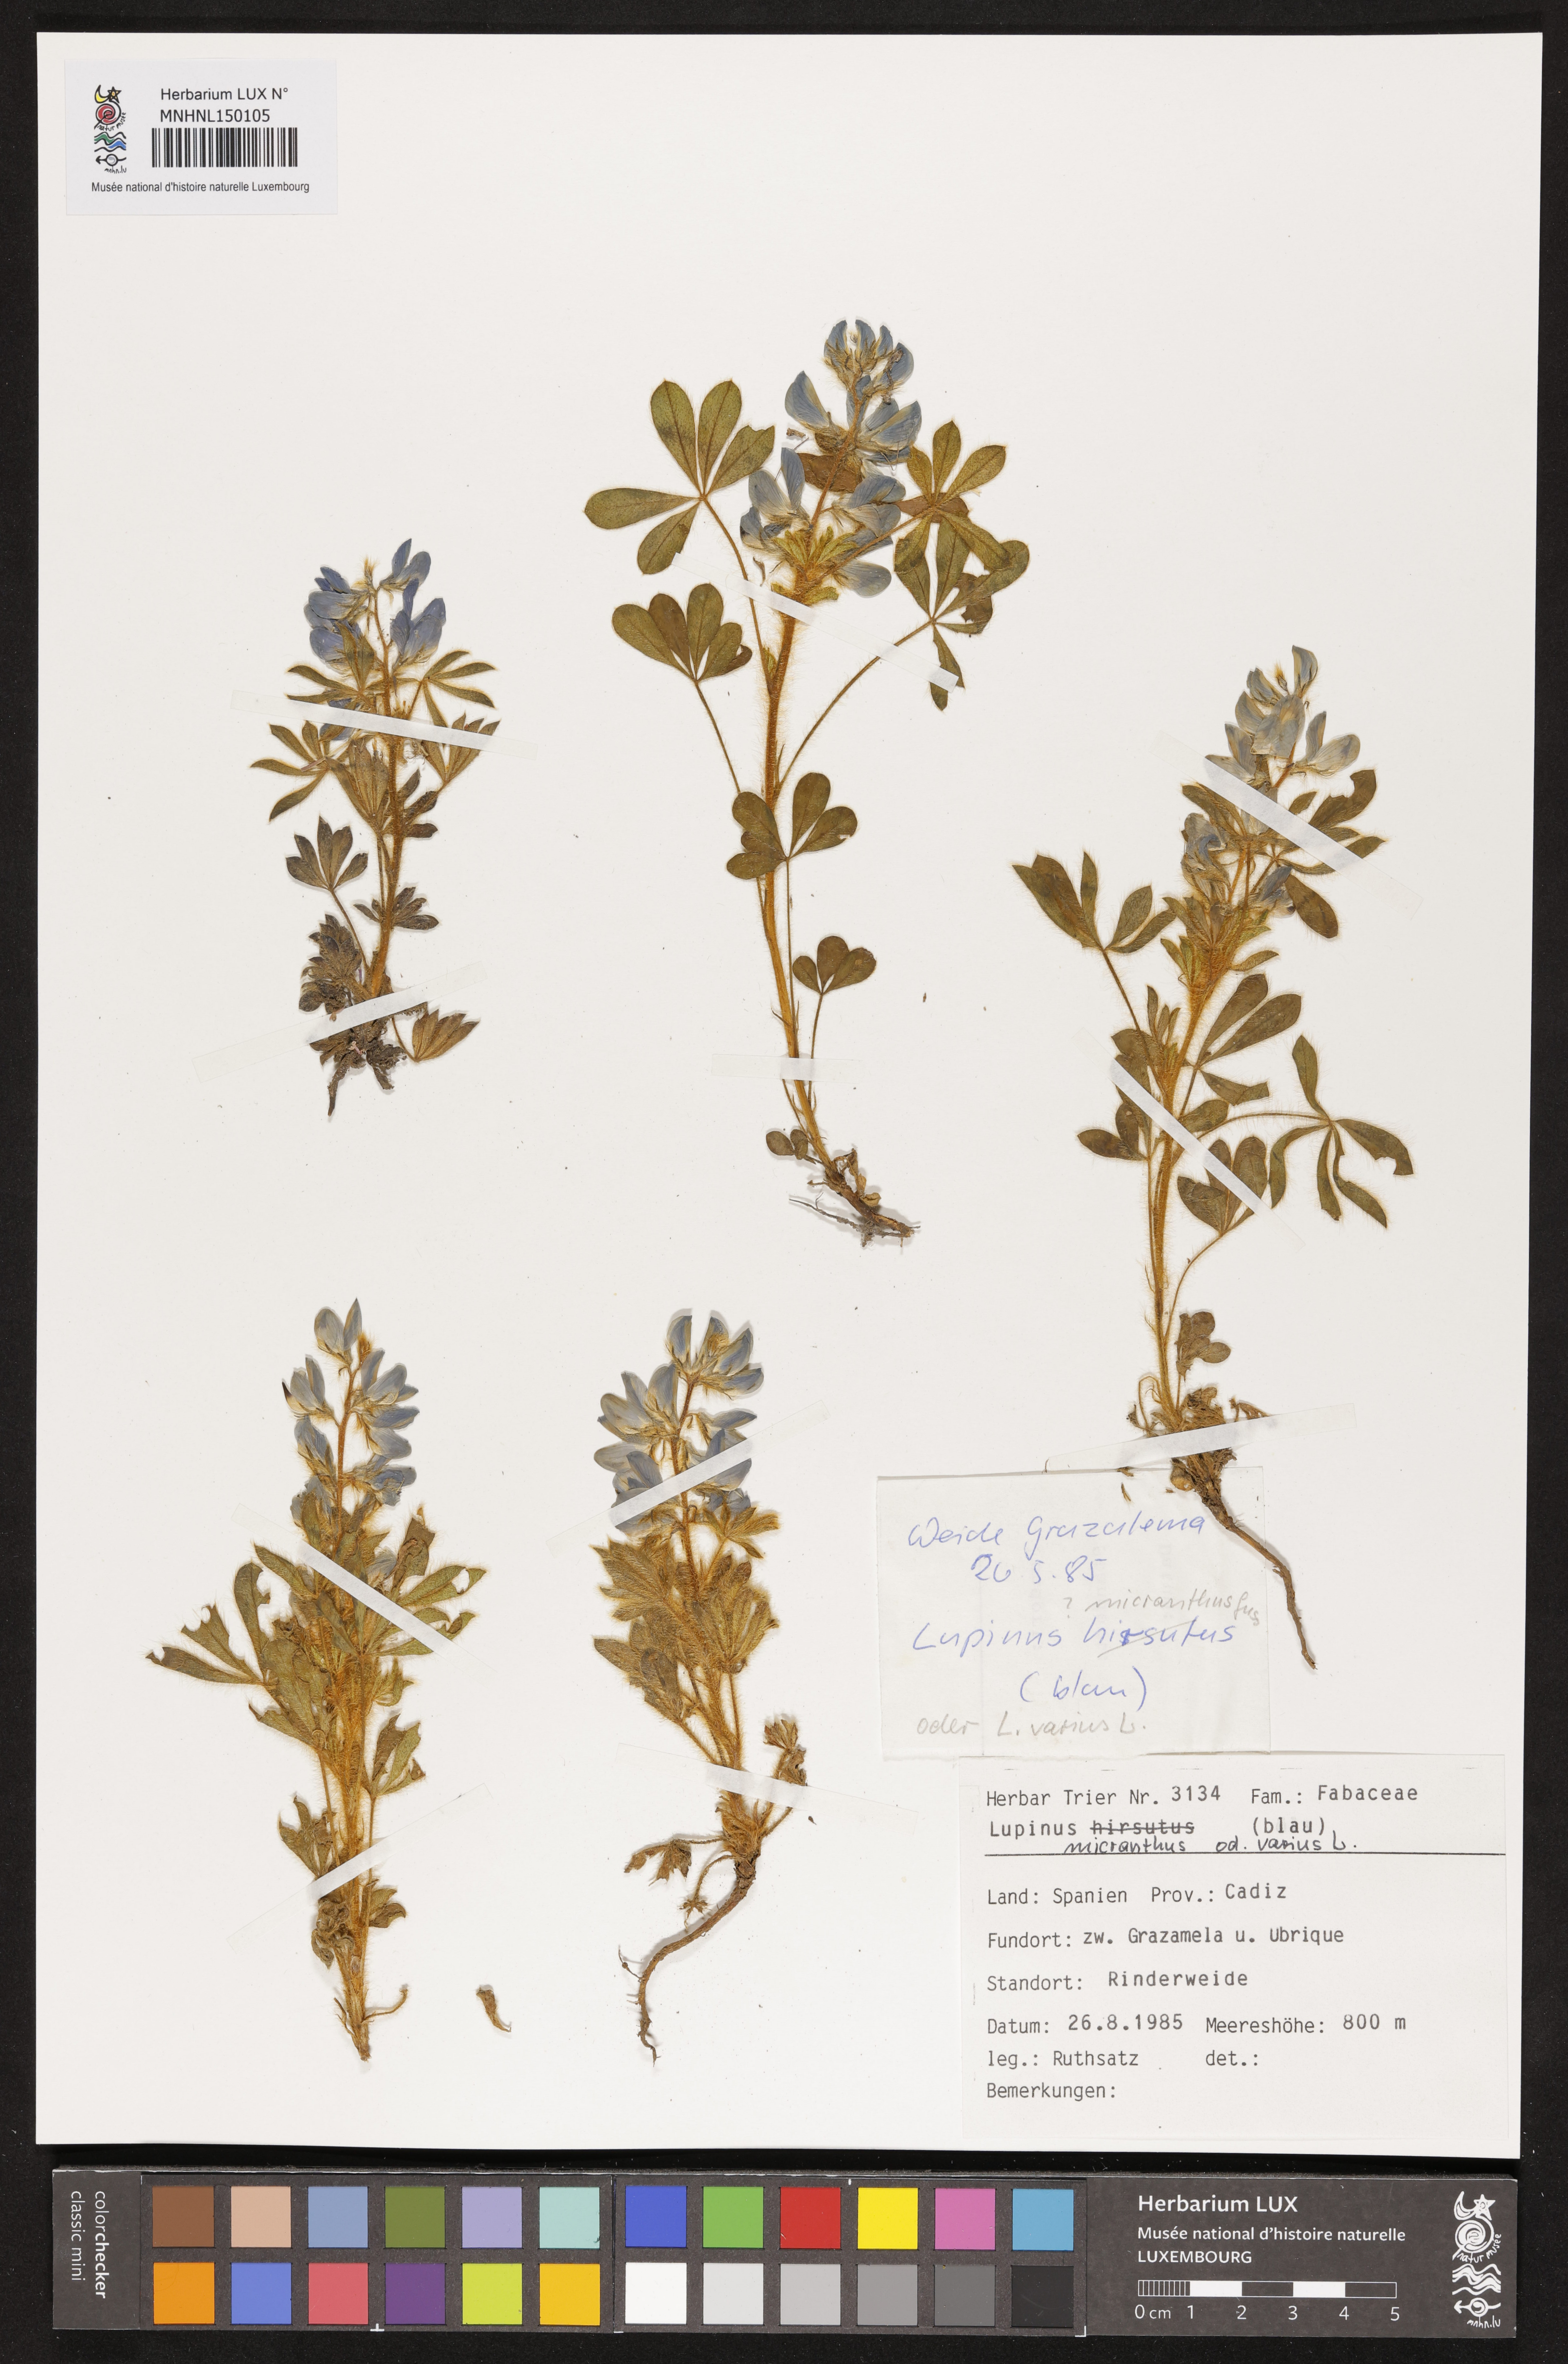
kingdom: Plantae
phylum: Tracheophyta
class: Magnoliopsida
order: Fabales
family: Fabaceae
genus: Lupinus
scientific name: Lupinus polycarpus
